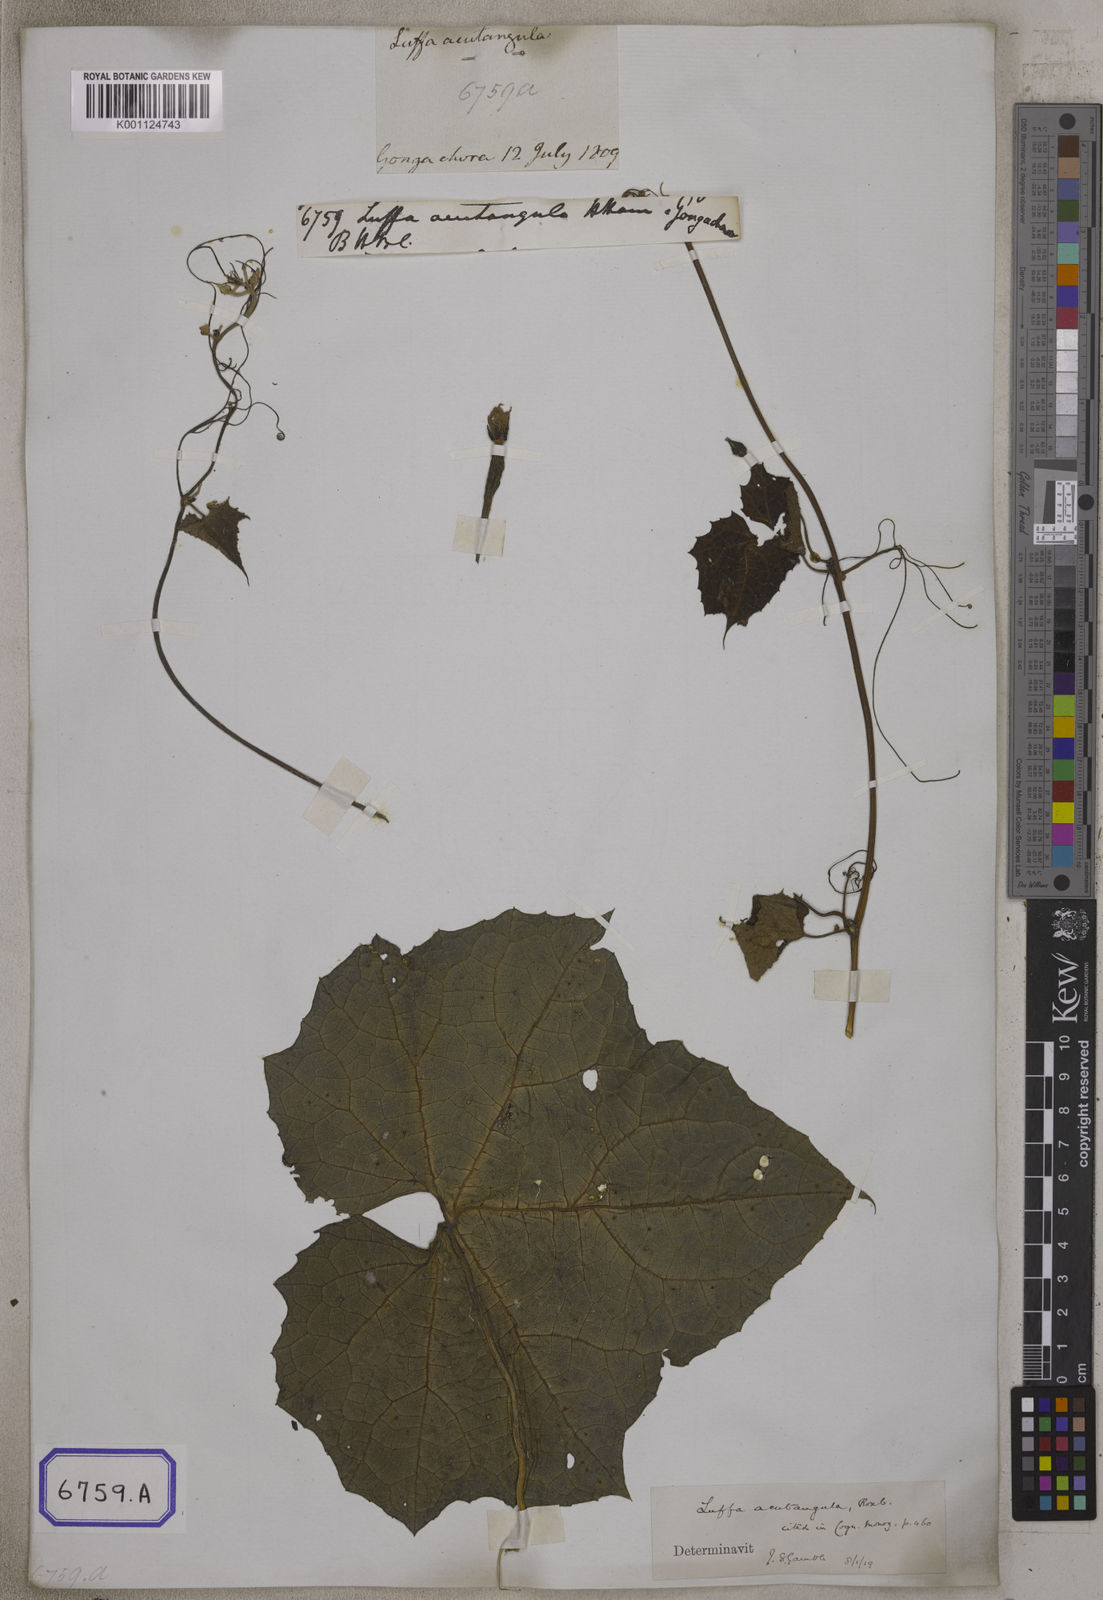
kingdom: Plantae
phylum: Tracheophyta
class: Magnoliopsida
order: Cucurbitales
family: Cucurbitaceae
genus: Luffa
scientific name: Luffa acutangula
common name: Sinkwa towelsponge
